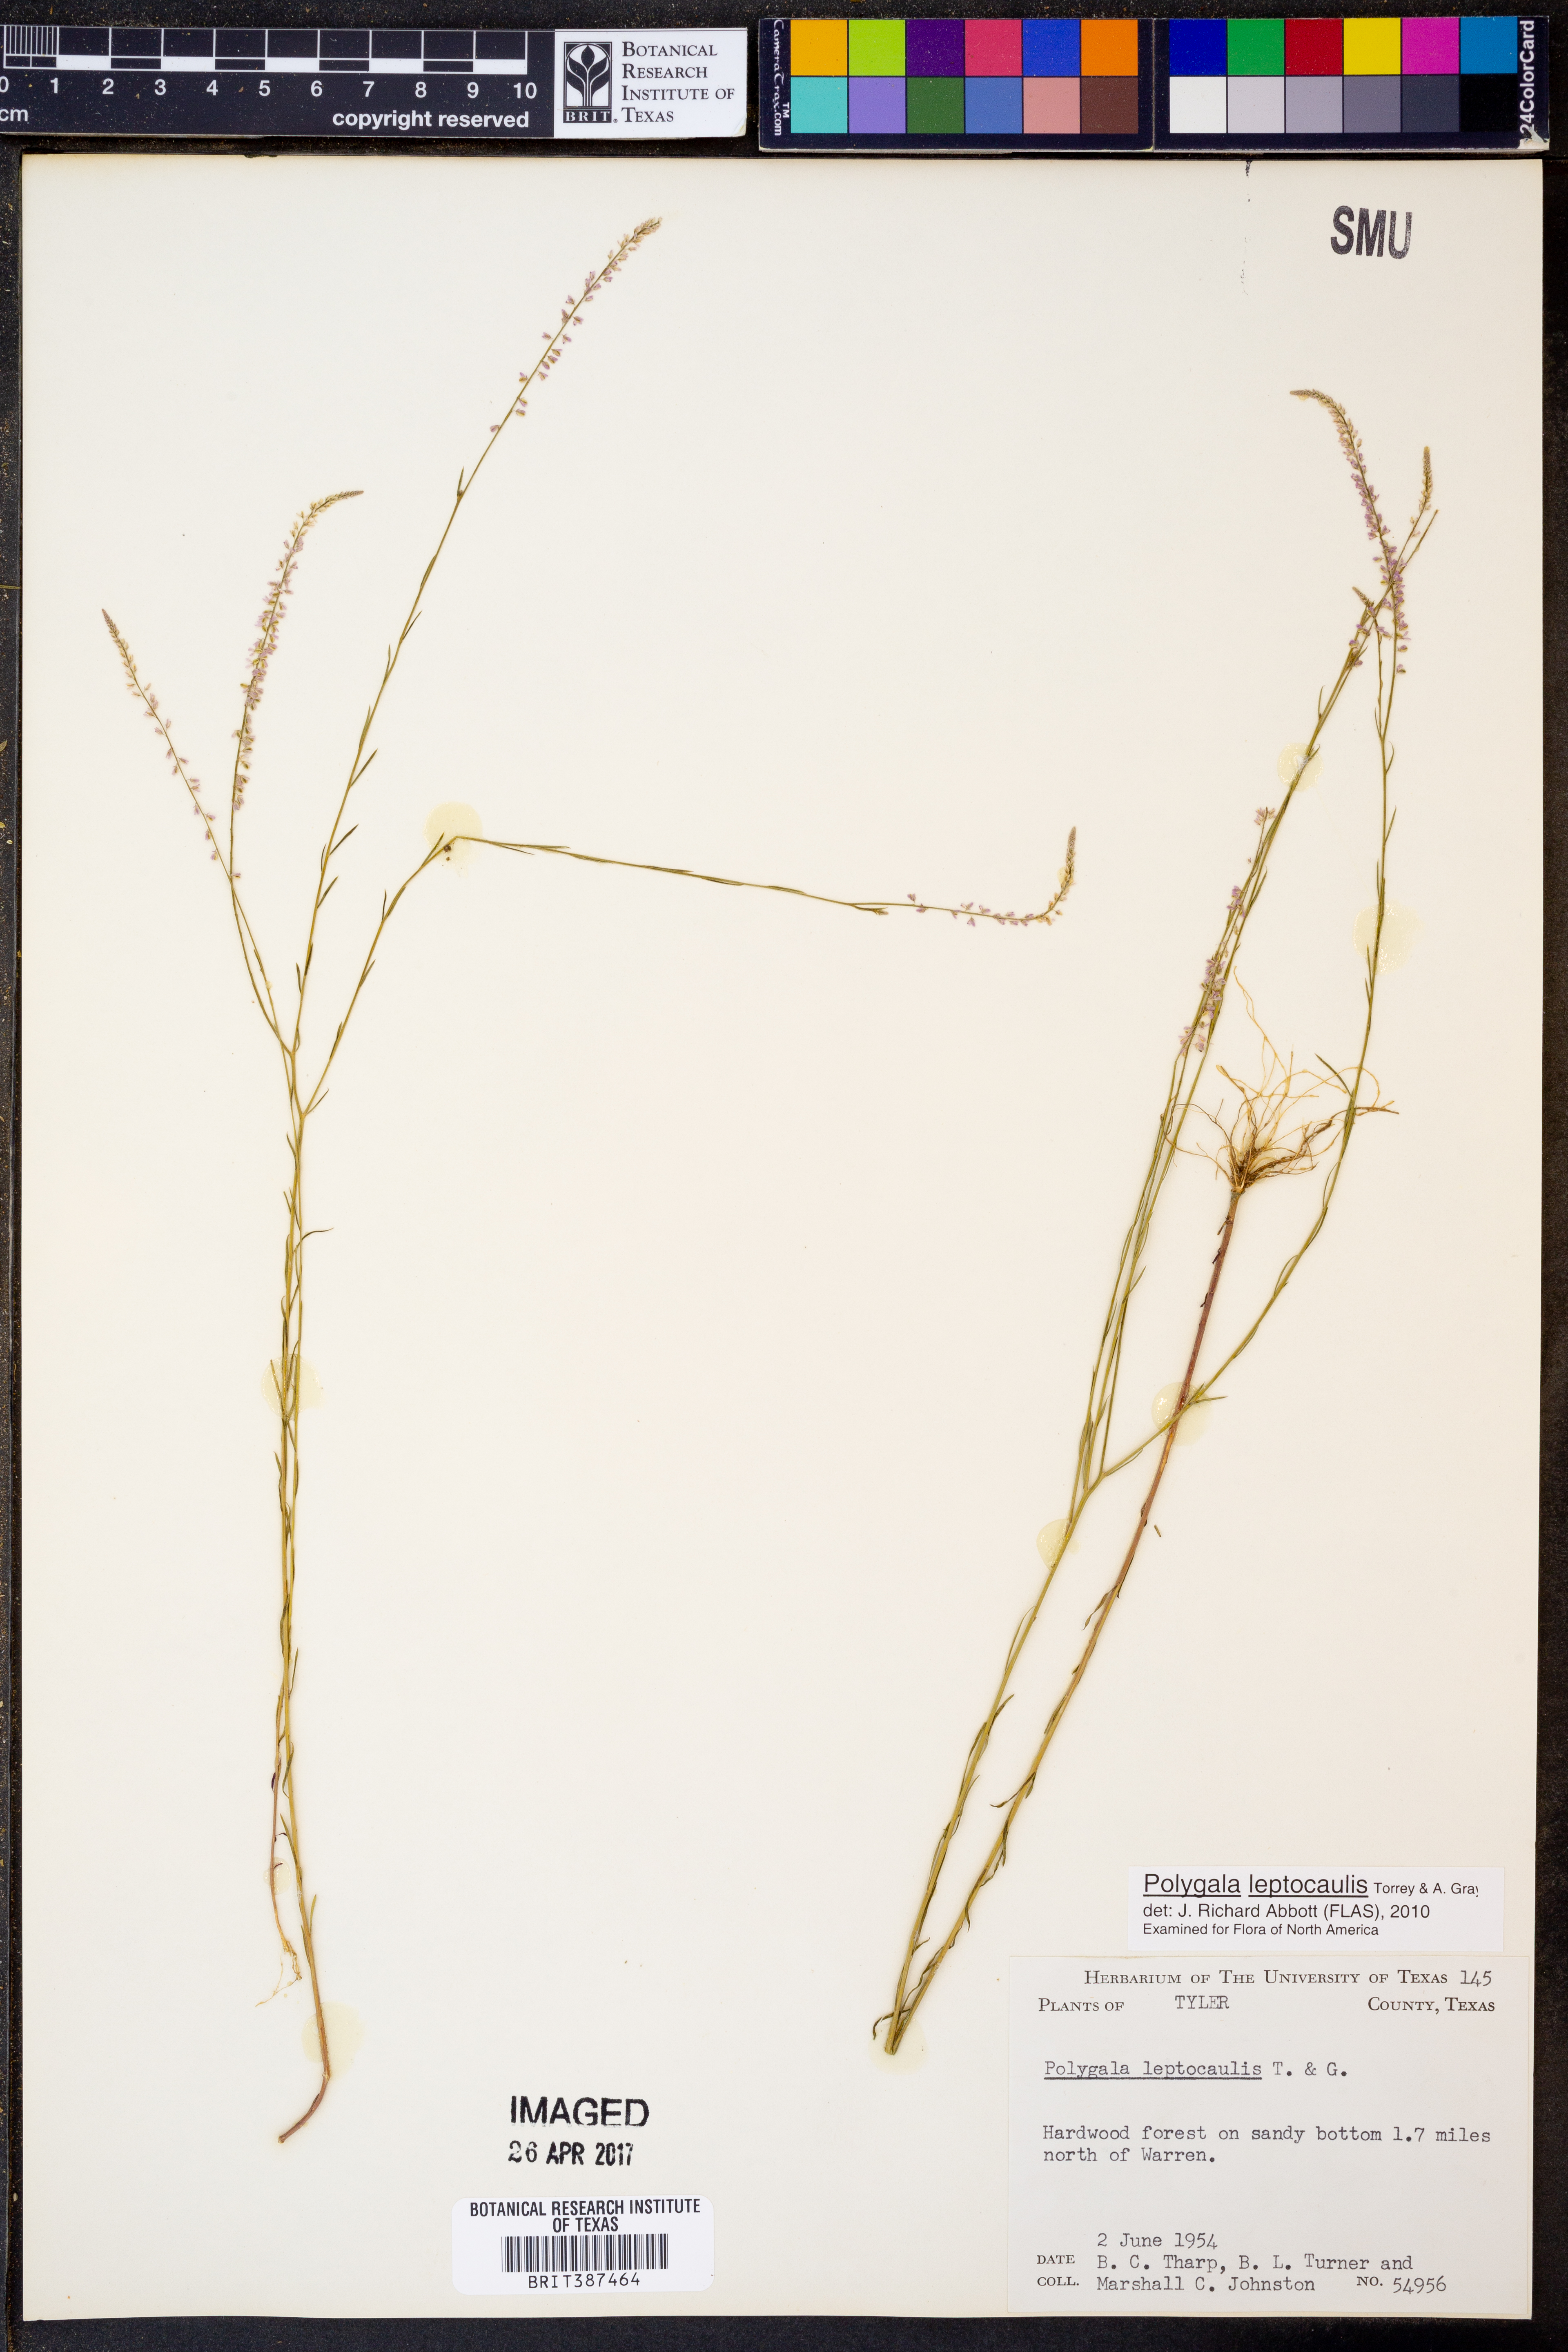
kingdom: Plantae
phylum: Tracheophyta
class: Magnoliopsida
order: Fabales
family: Polygalaceae
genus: Polygala
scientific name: Polygala tenella
